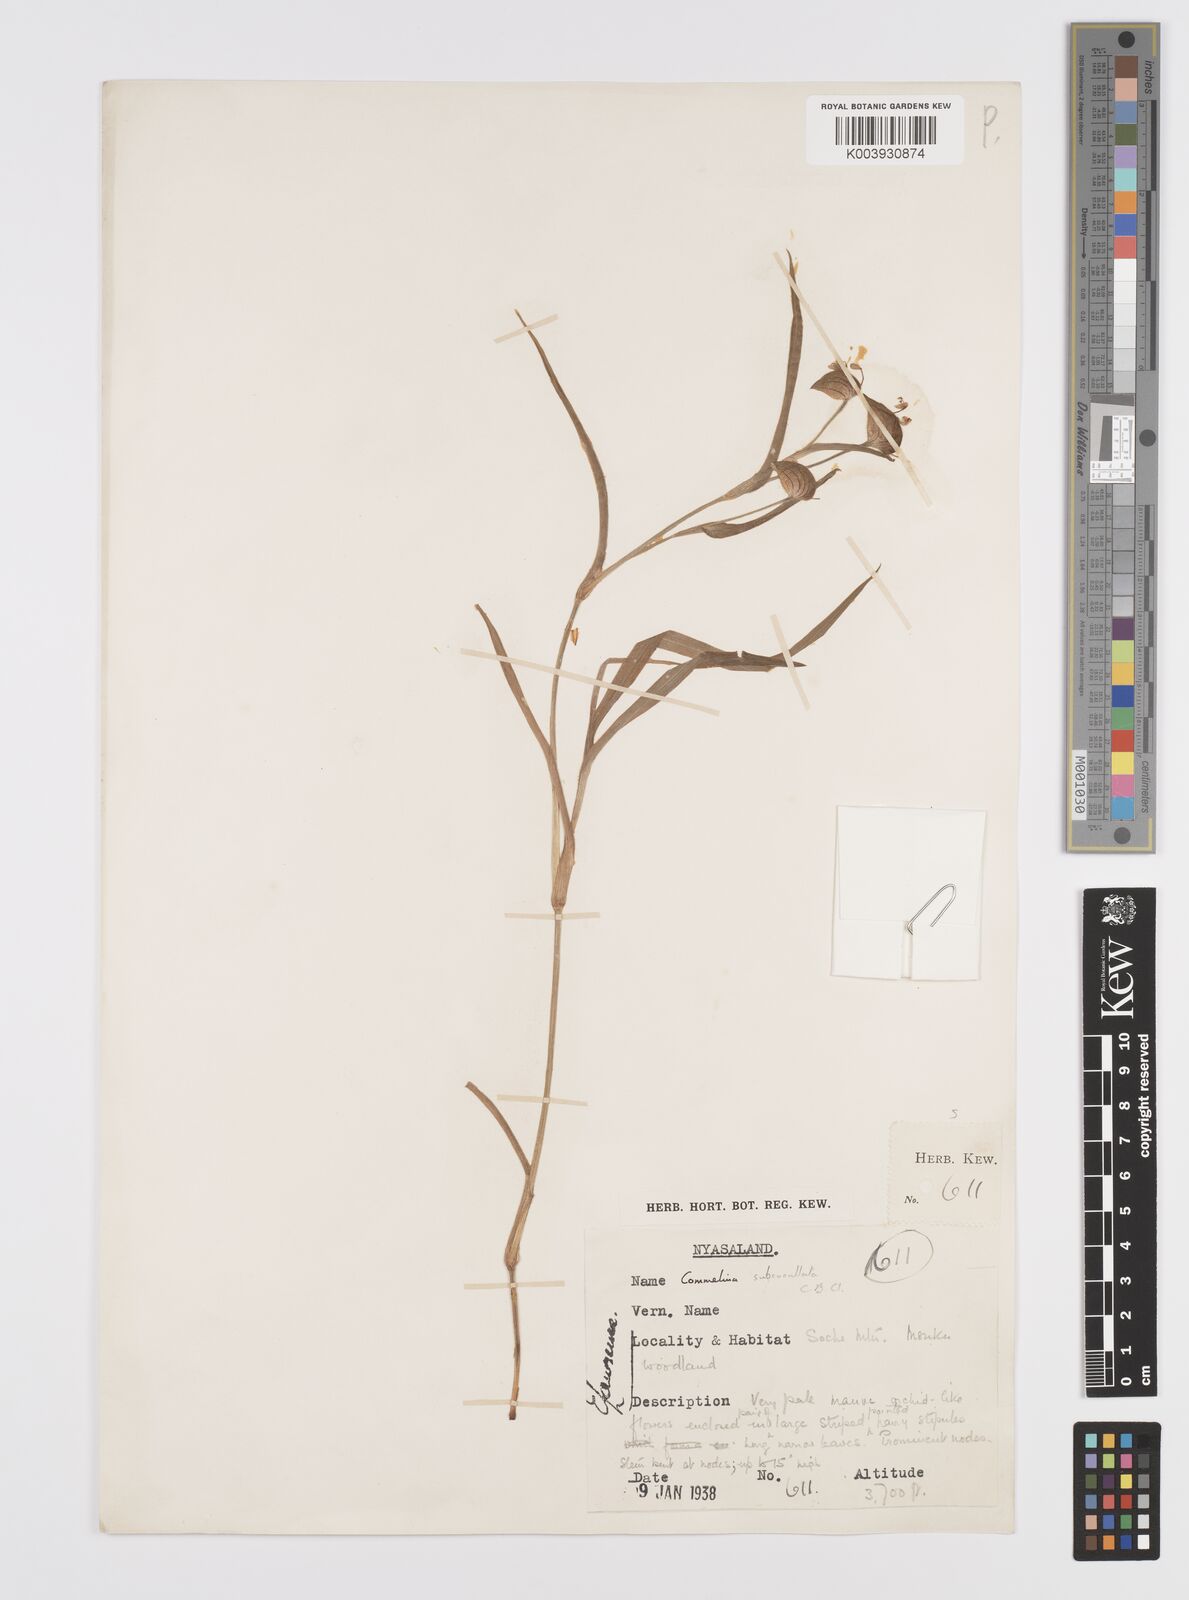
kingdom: Plantae
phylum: Tracheophyta
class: Liliopsida
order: Commelinales
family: Commelinaceae
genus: Commelina
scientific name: Commelina subcucullata
